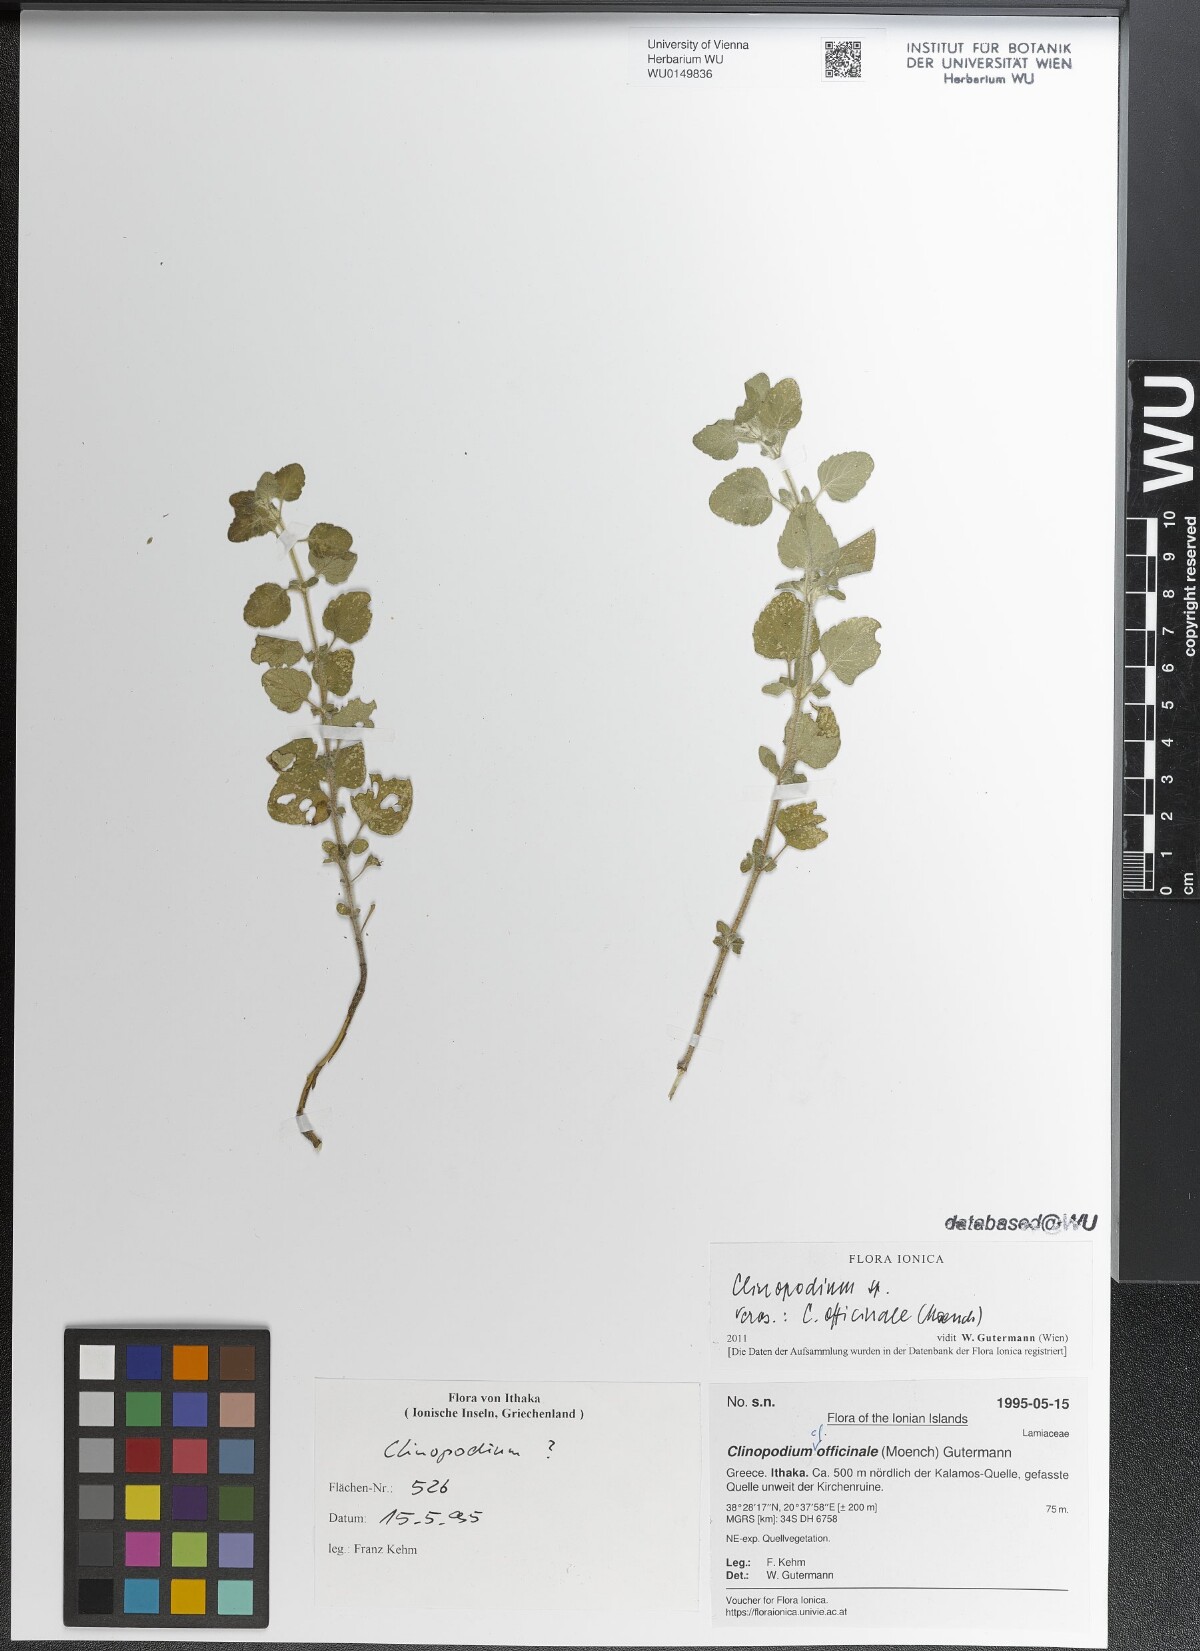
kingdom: Plantae
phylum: Tracheophyta
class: Magnoliopsida
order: Lamiales
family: Lamiaceae
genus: Clinopodium
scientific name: Clinopodium nepeta
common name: Lesser calamint
